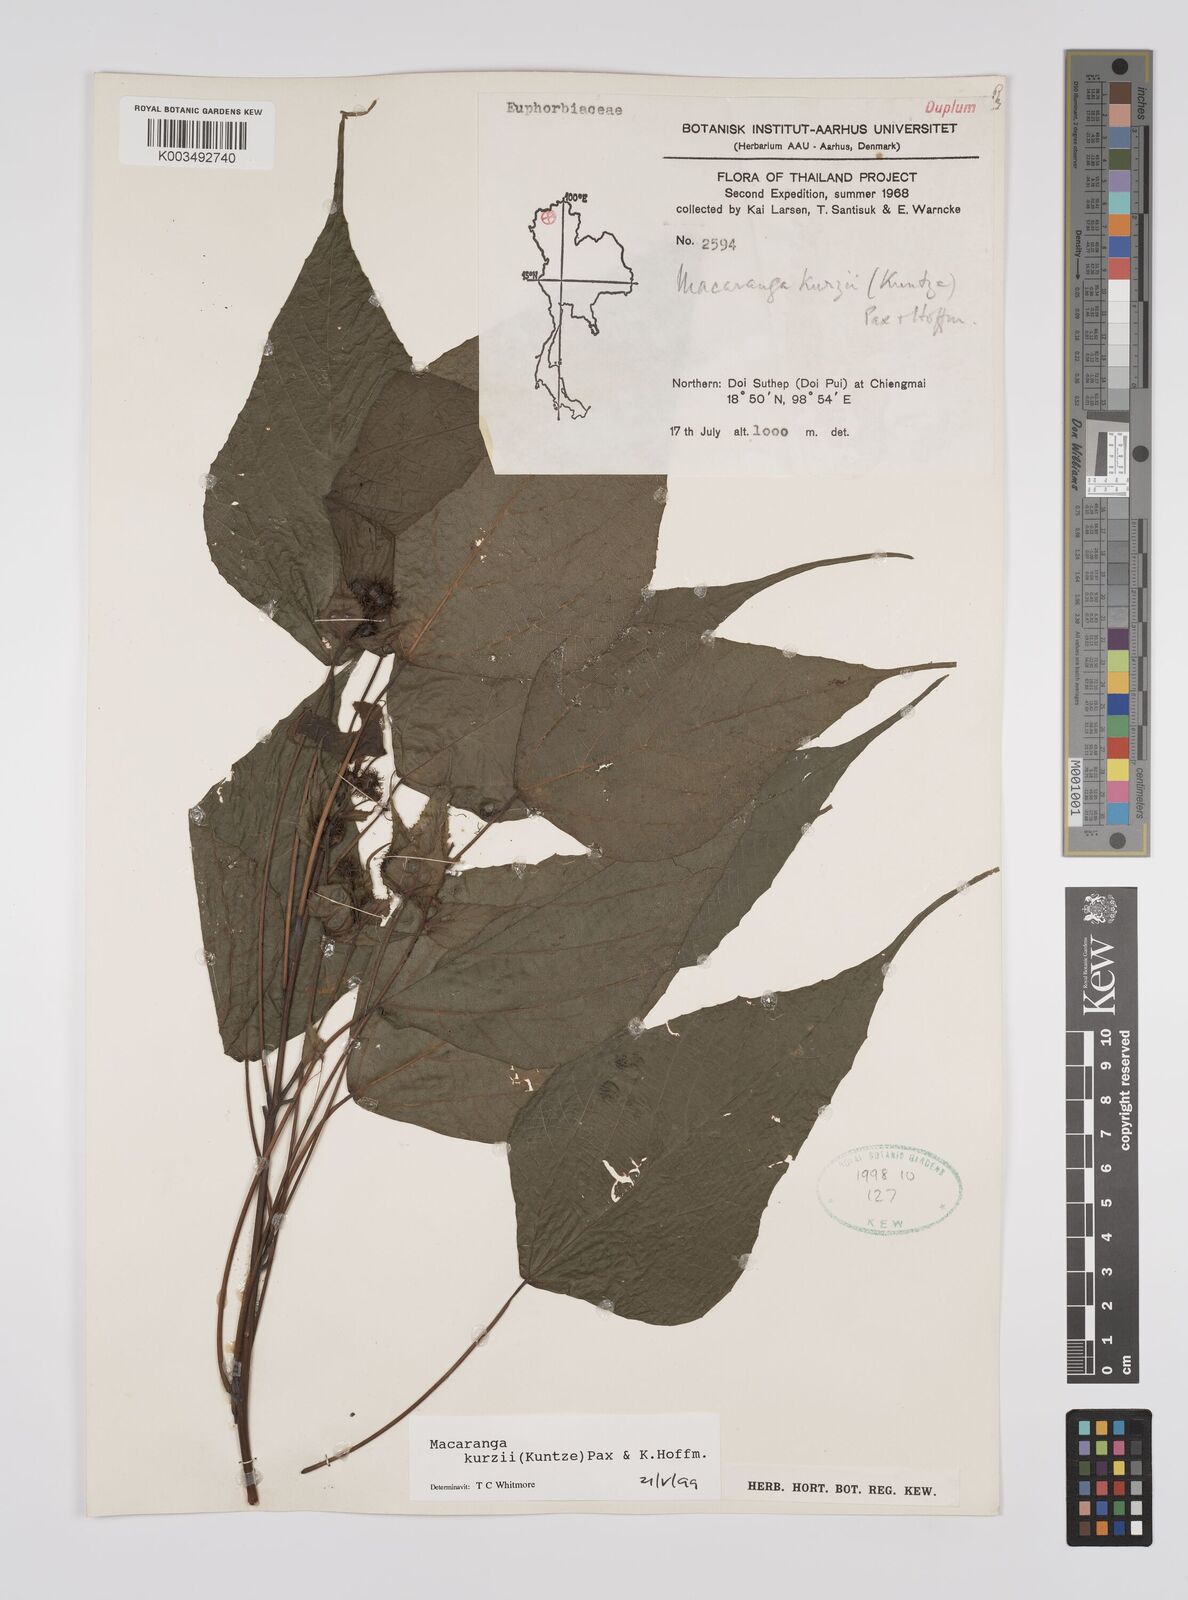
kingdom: Plantae
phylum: Tracheophyta
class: Magnoliopsida
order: Malpighiales
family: Euphorbiaceae
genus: Macaranga
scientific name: Macaranga kurzii
